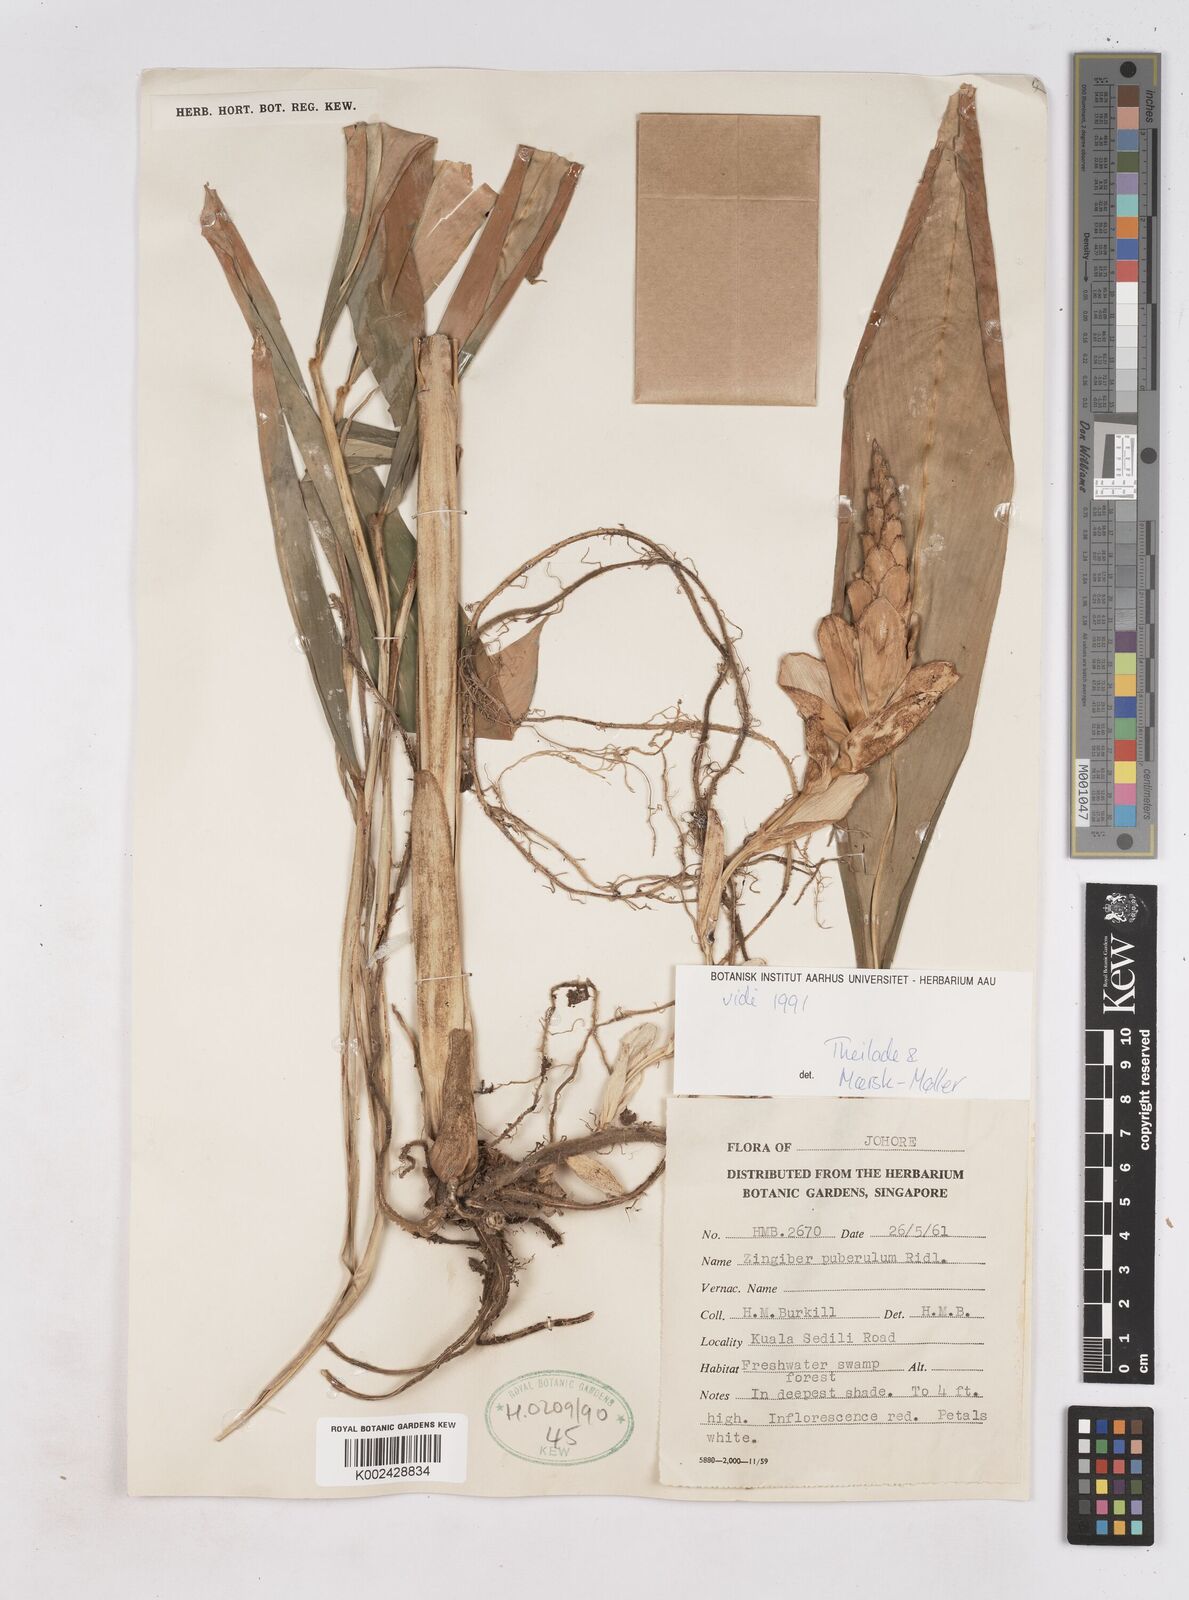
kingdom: Plantae
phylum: Tracheophyta
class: Liliopsida
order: Zingiberales
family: Zingiberaceae
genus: Zingiber
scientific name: Zingiber puberulum
